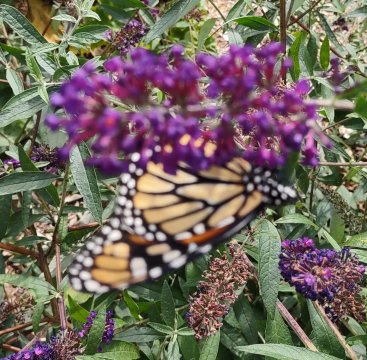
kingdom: Animalia
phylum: Arthropoda
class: Insecta
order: Lepidoptera
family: Nymphalidae
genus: Danaus
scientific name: Danaus plexippus
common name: Monarch
